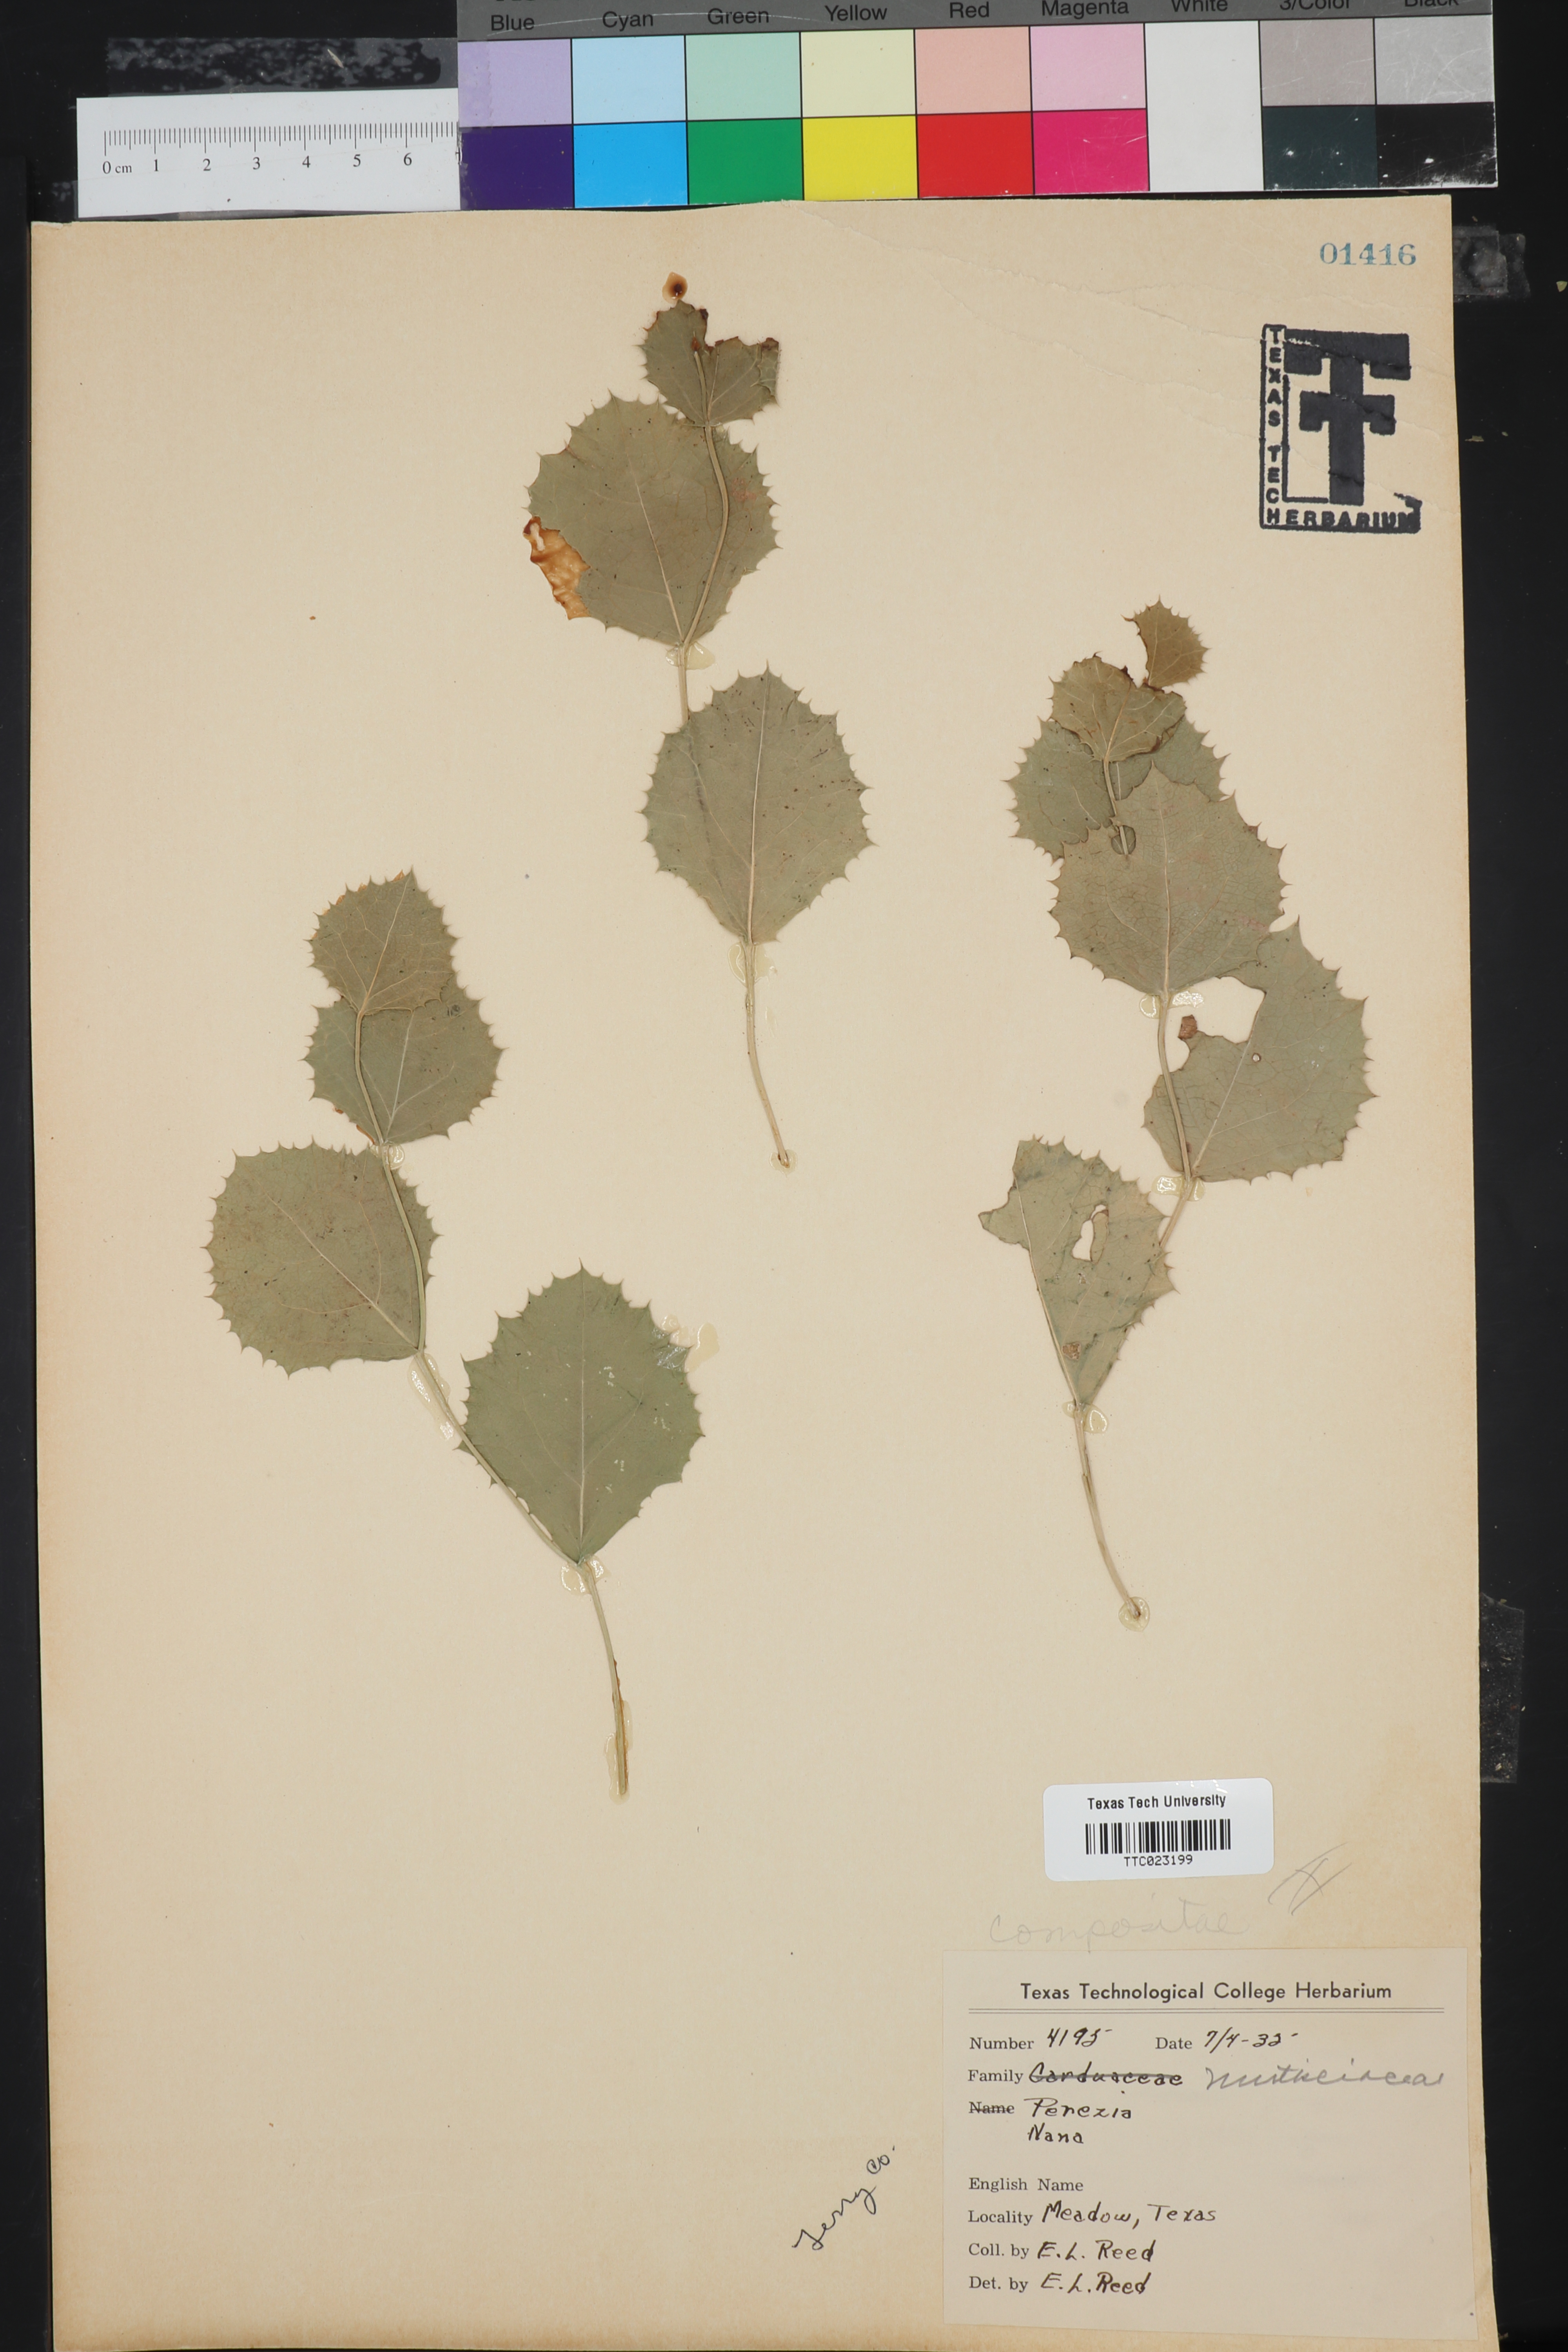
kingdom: Plantae
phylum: Tracheophyta
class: Magnoliopsida
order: Asterales
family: Asteraceae
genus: Acourtia
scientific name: Acourtia nana
